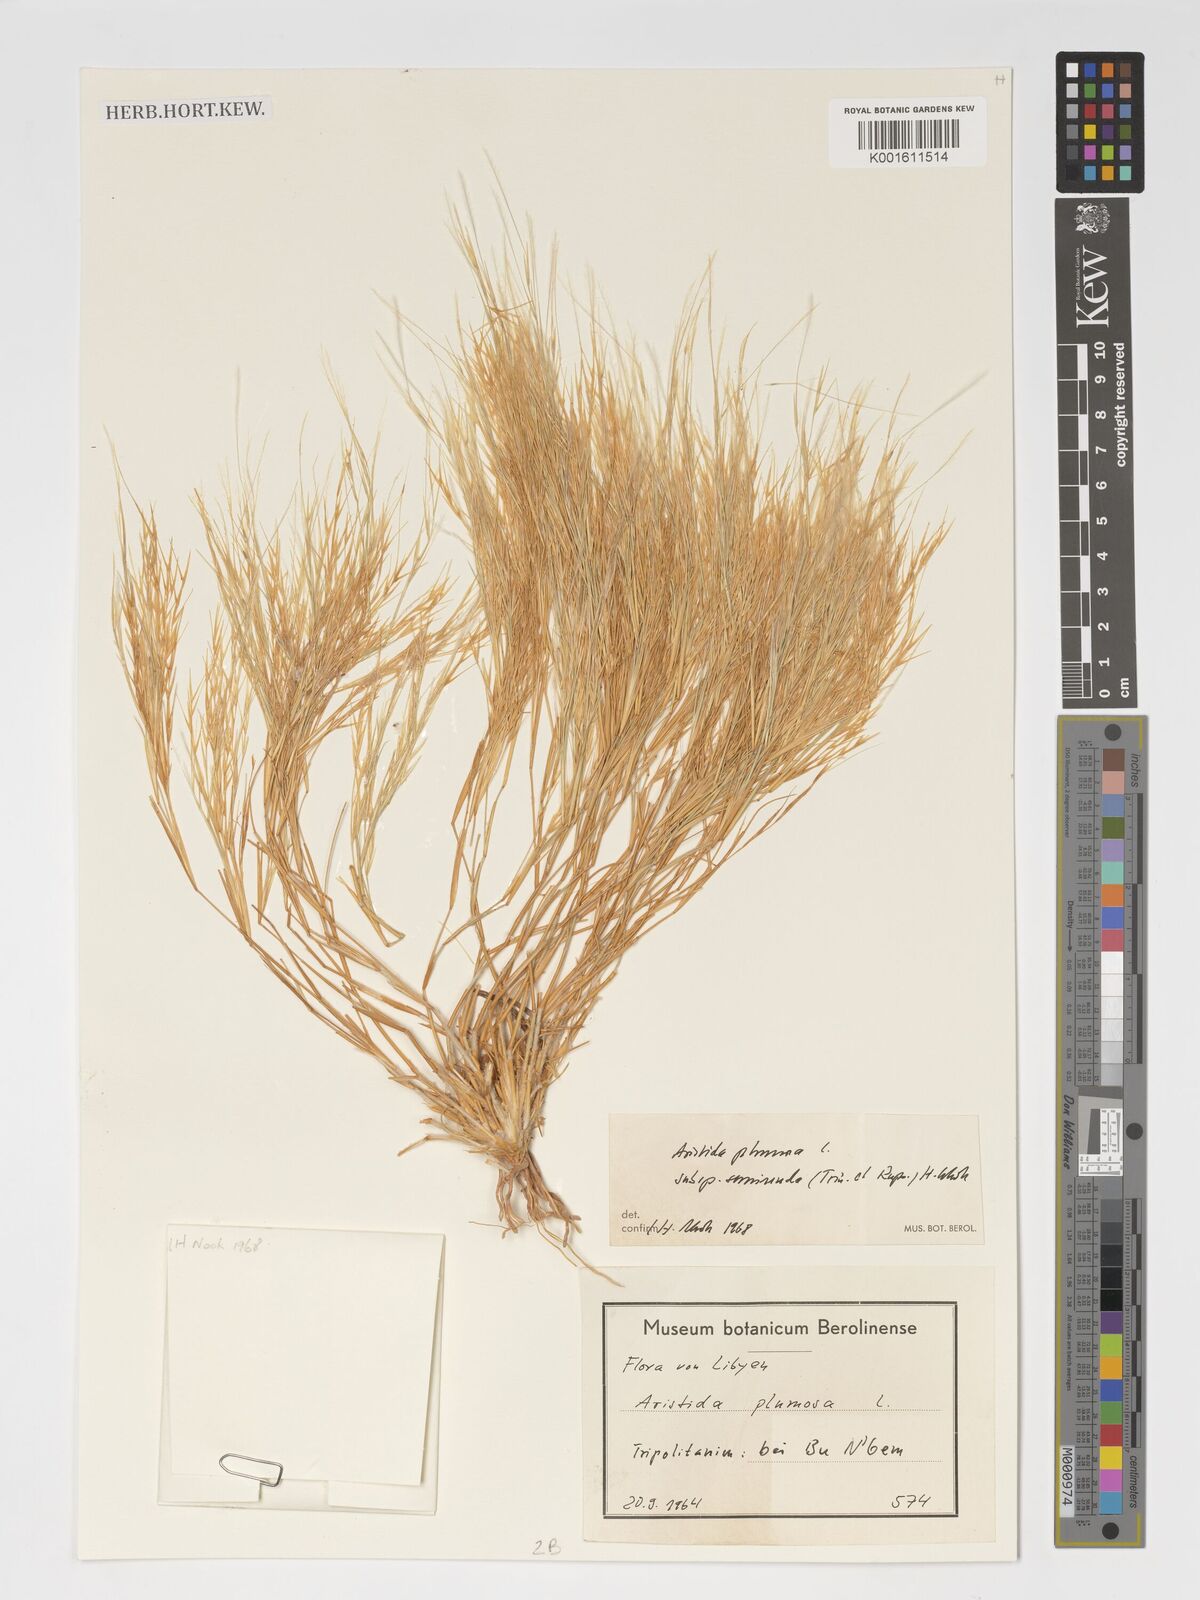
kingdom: Plantae
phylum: Tracheophyta
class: Liliopsida
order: Poales
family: Poaceae
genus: Stipagrostis
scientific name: Stipagrostis plumosa
